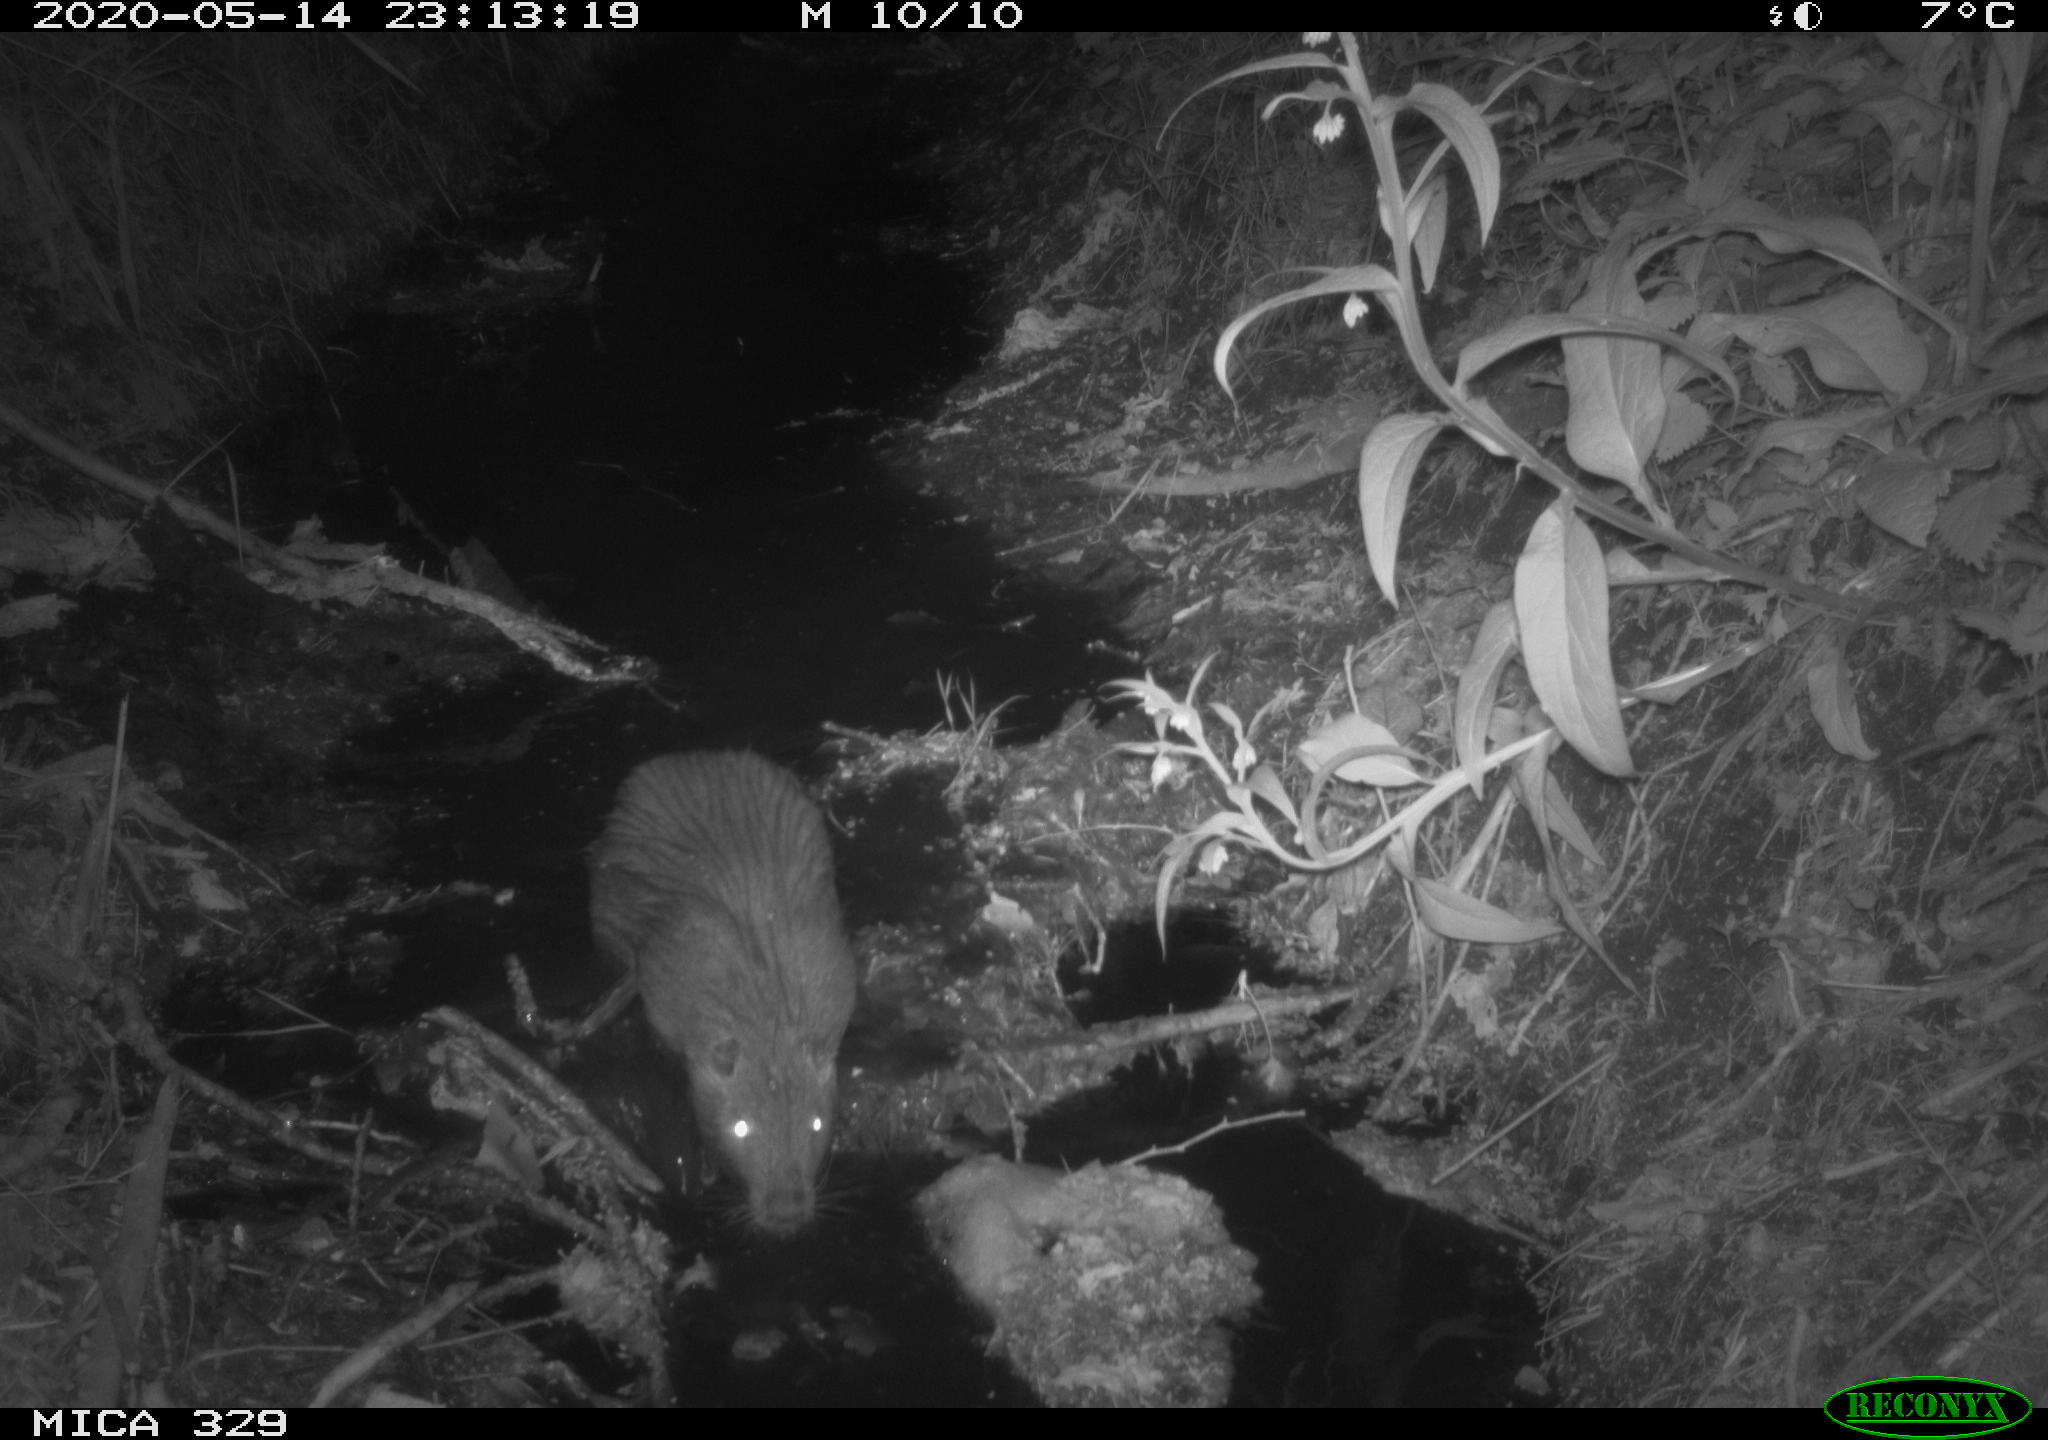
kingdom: Animalia
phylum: Chordata
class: Mammalia
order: Rodentia
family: Myocastoridae
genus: Myocastor
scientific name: Myocastor coypus
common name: Coypu
